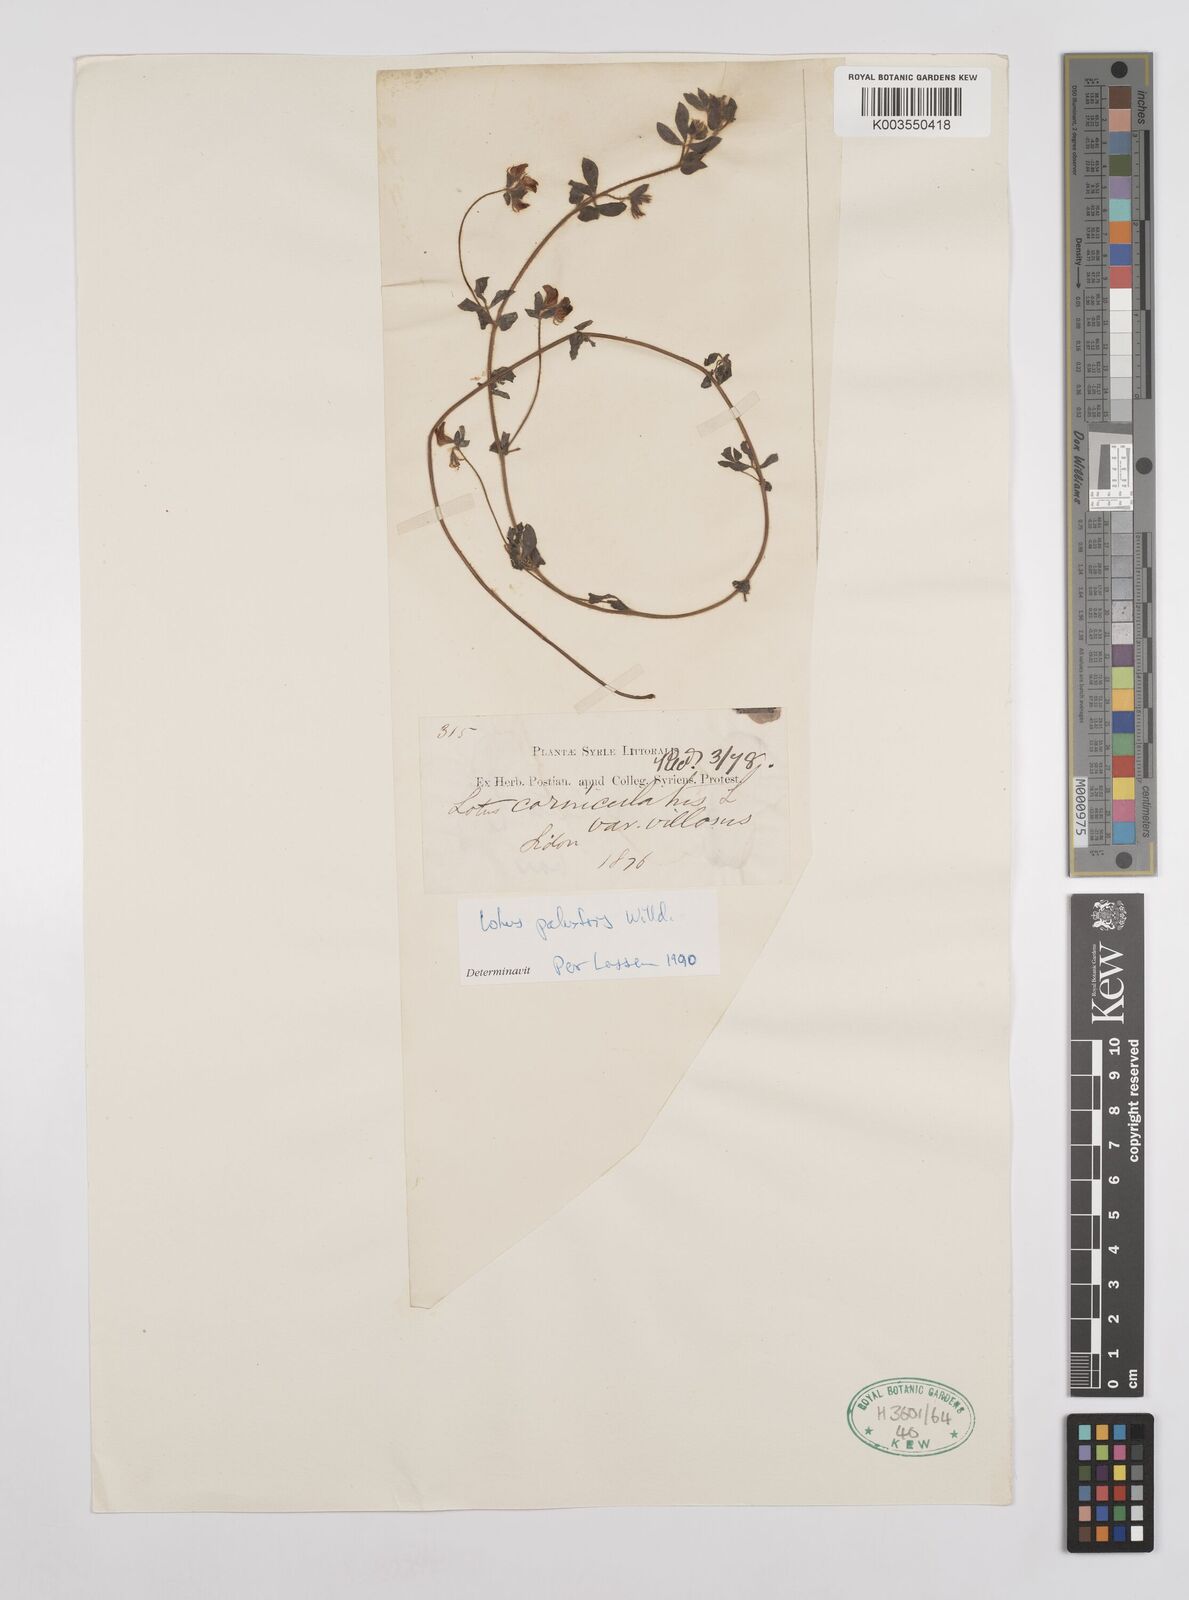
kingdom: Plantae
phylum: Tracheophyta
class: Magnoliopsida
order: Fabales
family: Fabaceae
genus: Lotus
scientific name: Lotus palustris
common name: Large birds-foot trefoil
